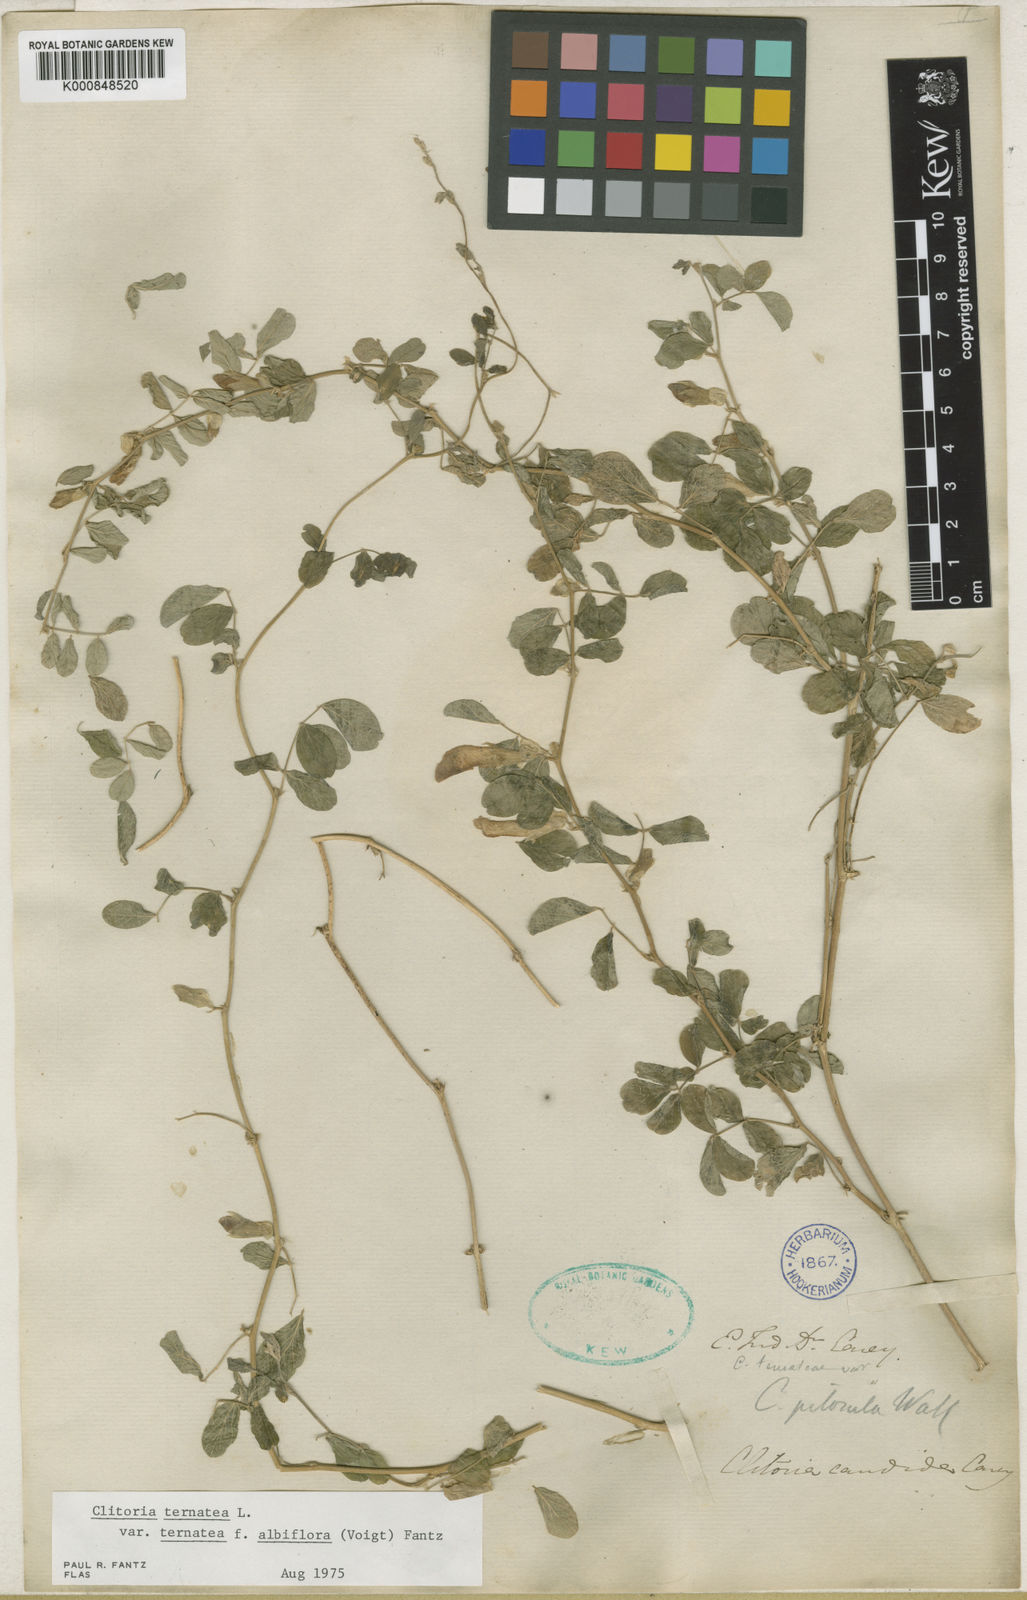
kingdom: Plantae
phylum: Tracheophyta
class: Magnoliopsida
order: Fabales
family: Fabaceae
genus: Clitoria
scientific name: Clitoria ternatea
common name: Asian pigeonwings
